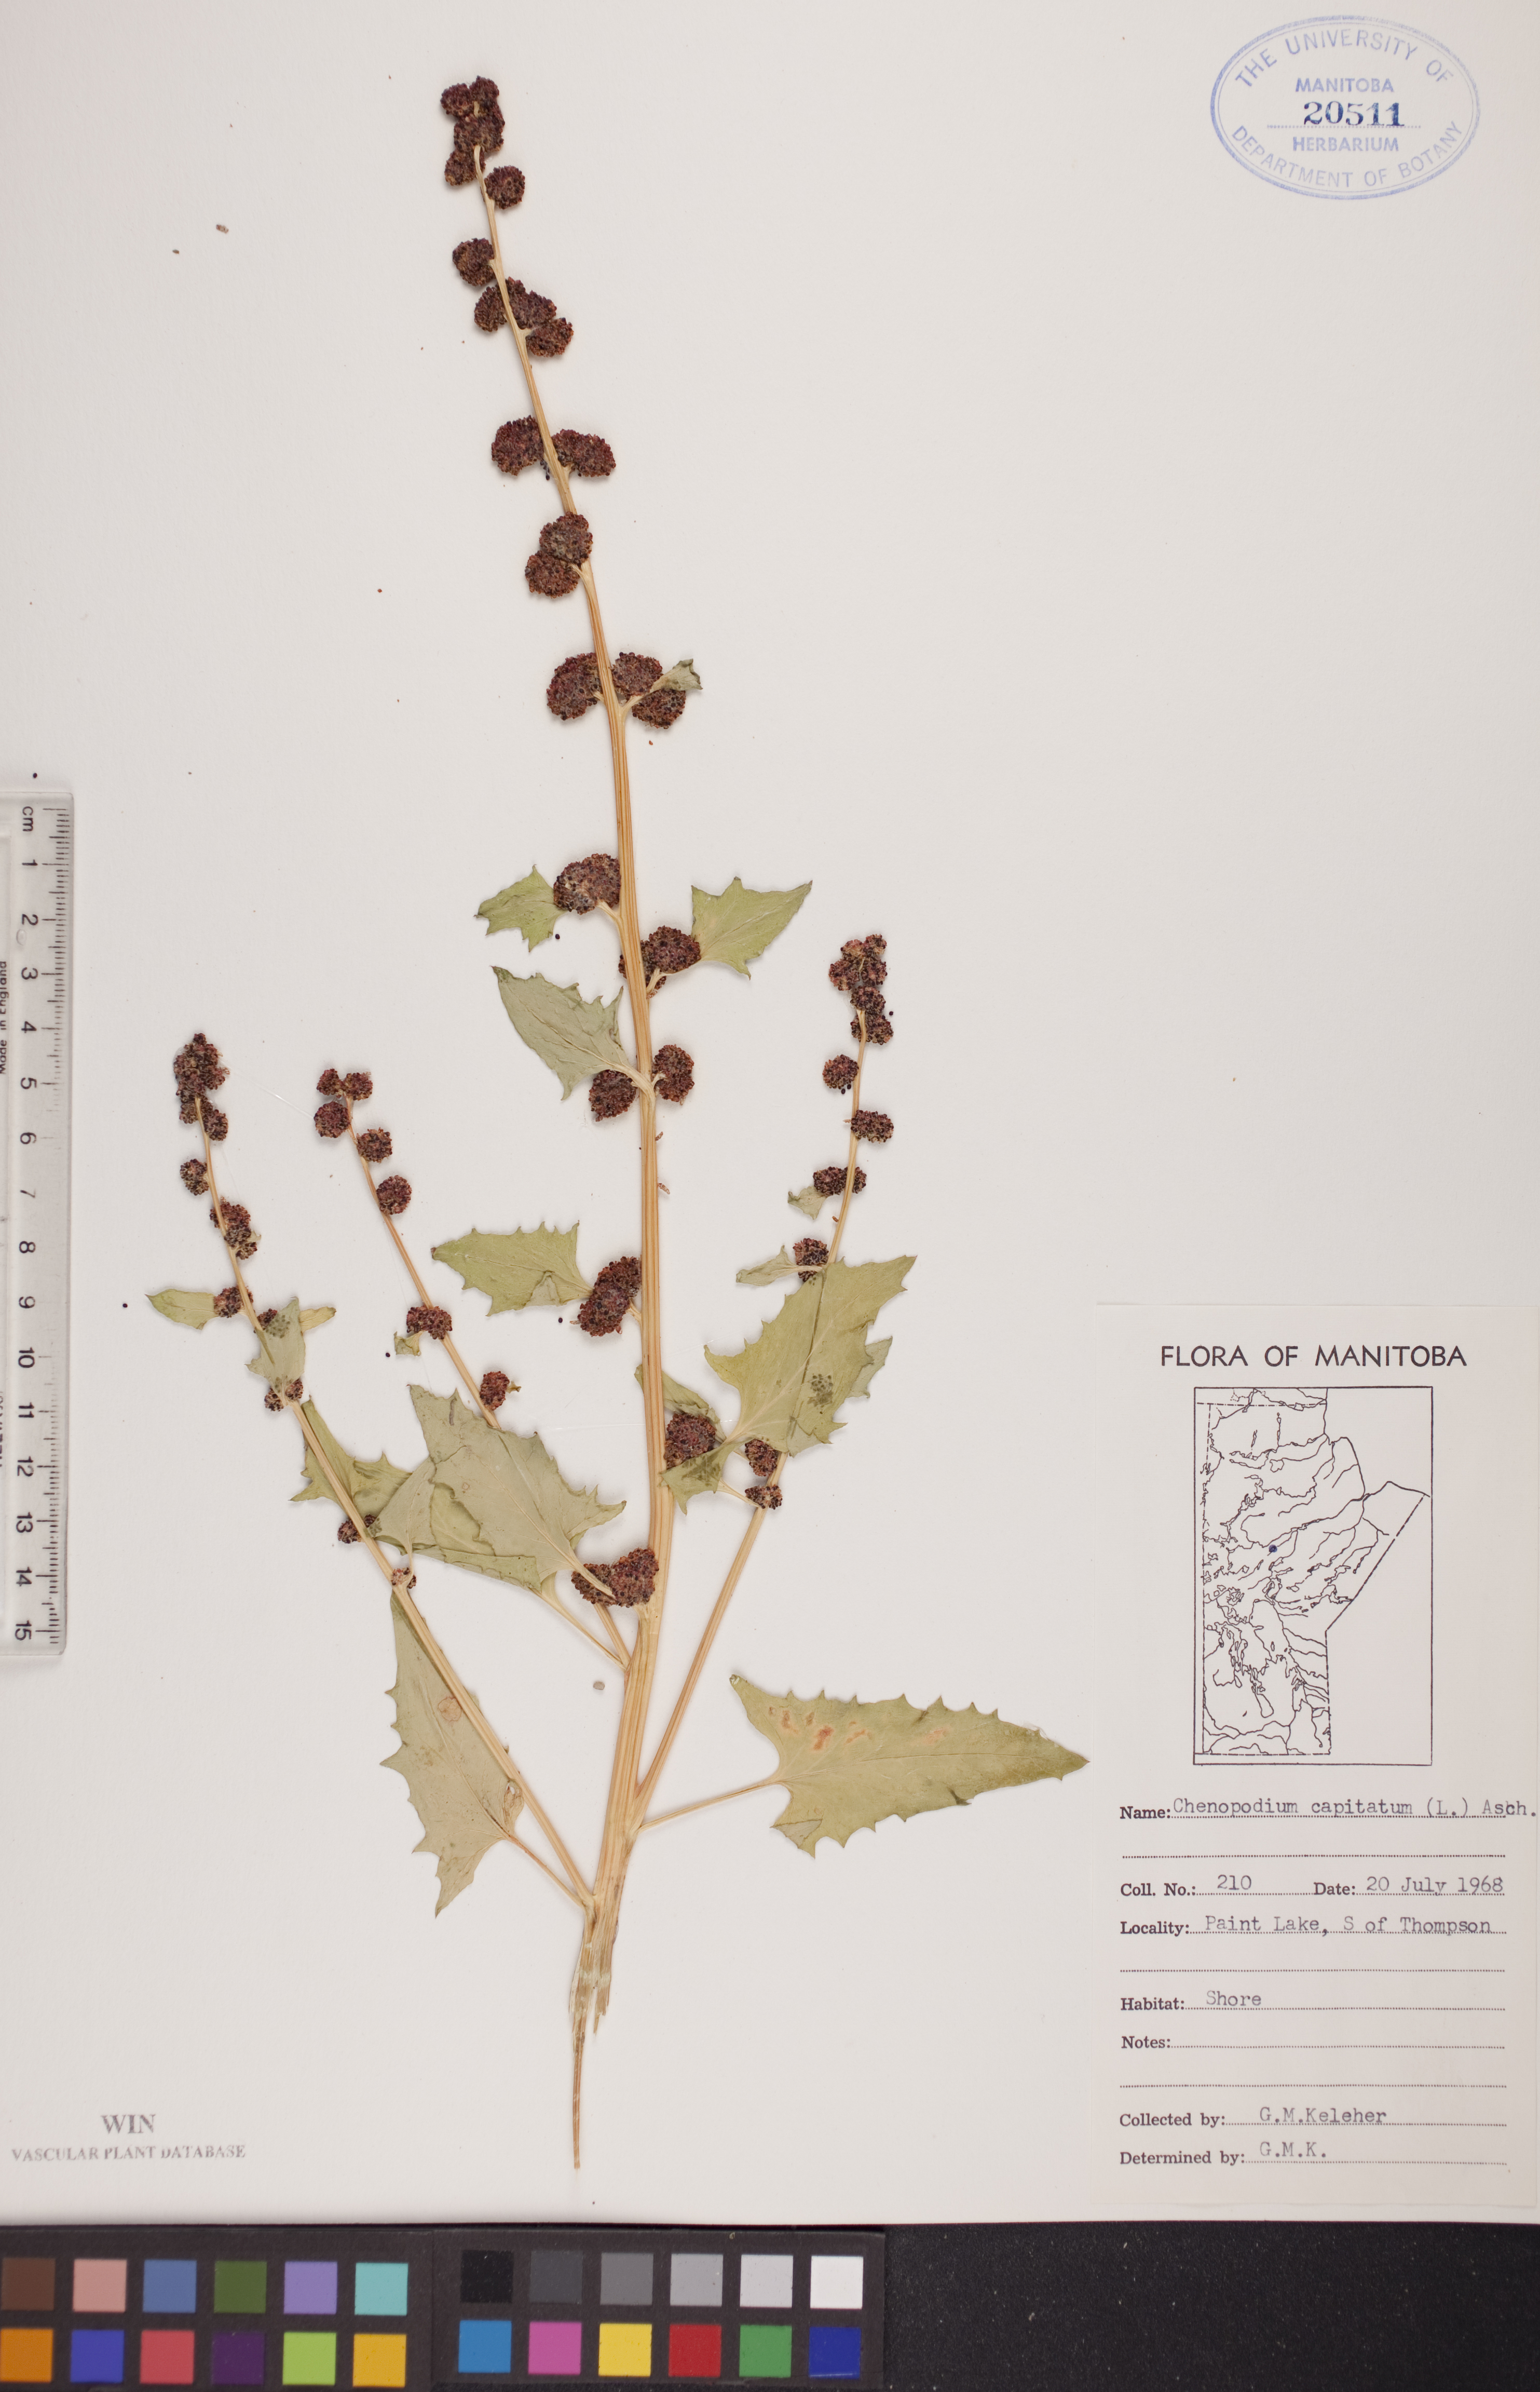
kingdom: Plantae
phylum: Tracheophyta
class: Magnoliopsida
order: Caryophyllales
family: Amaranthaceae
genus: Blitum
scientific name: Blitum capitatum
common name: Strawberry-blight
